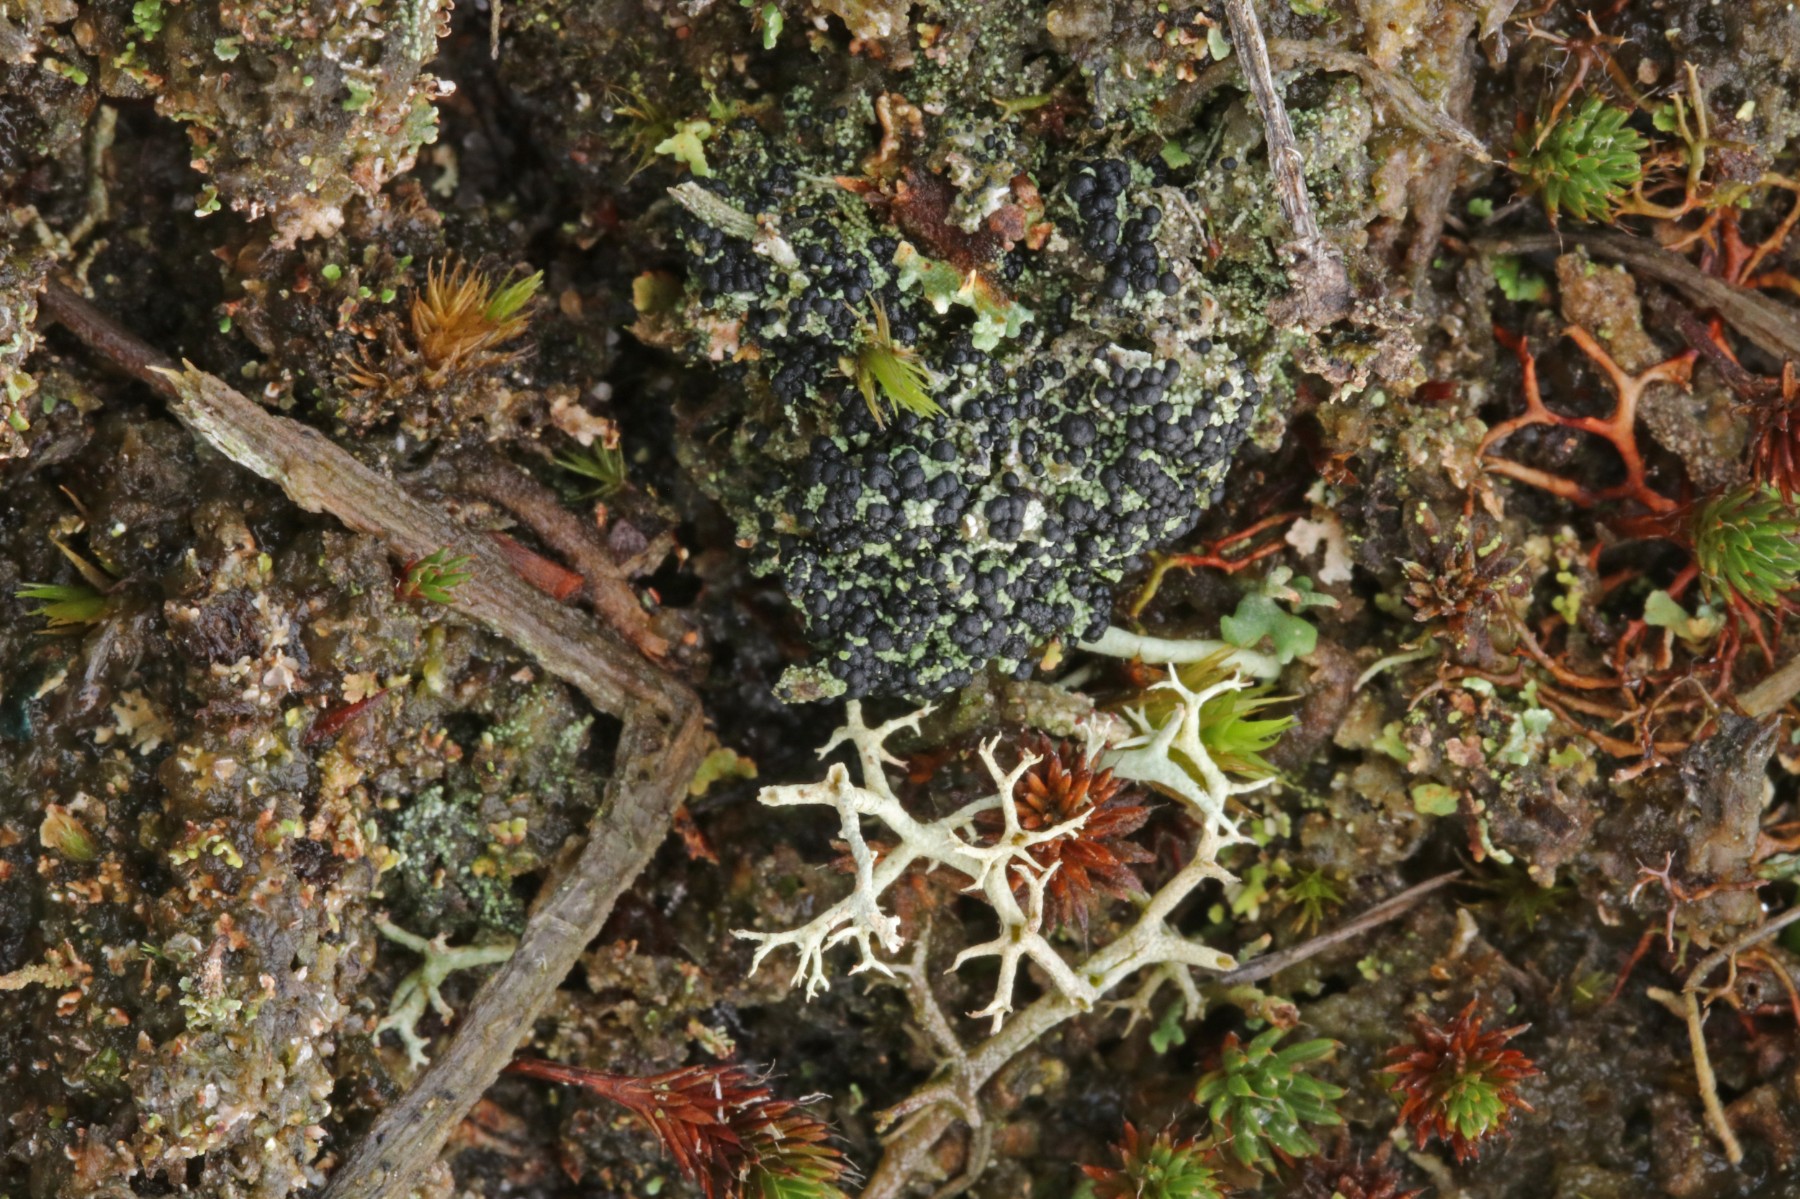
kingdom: Fungi
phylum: Ascomycota
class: Lecanoromycetes
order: Lecanorales
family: Byssolomataceae
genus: Micarea
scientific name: Micarea lignaria
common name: tørve-knaplav
